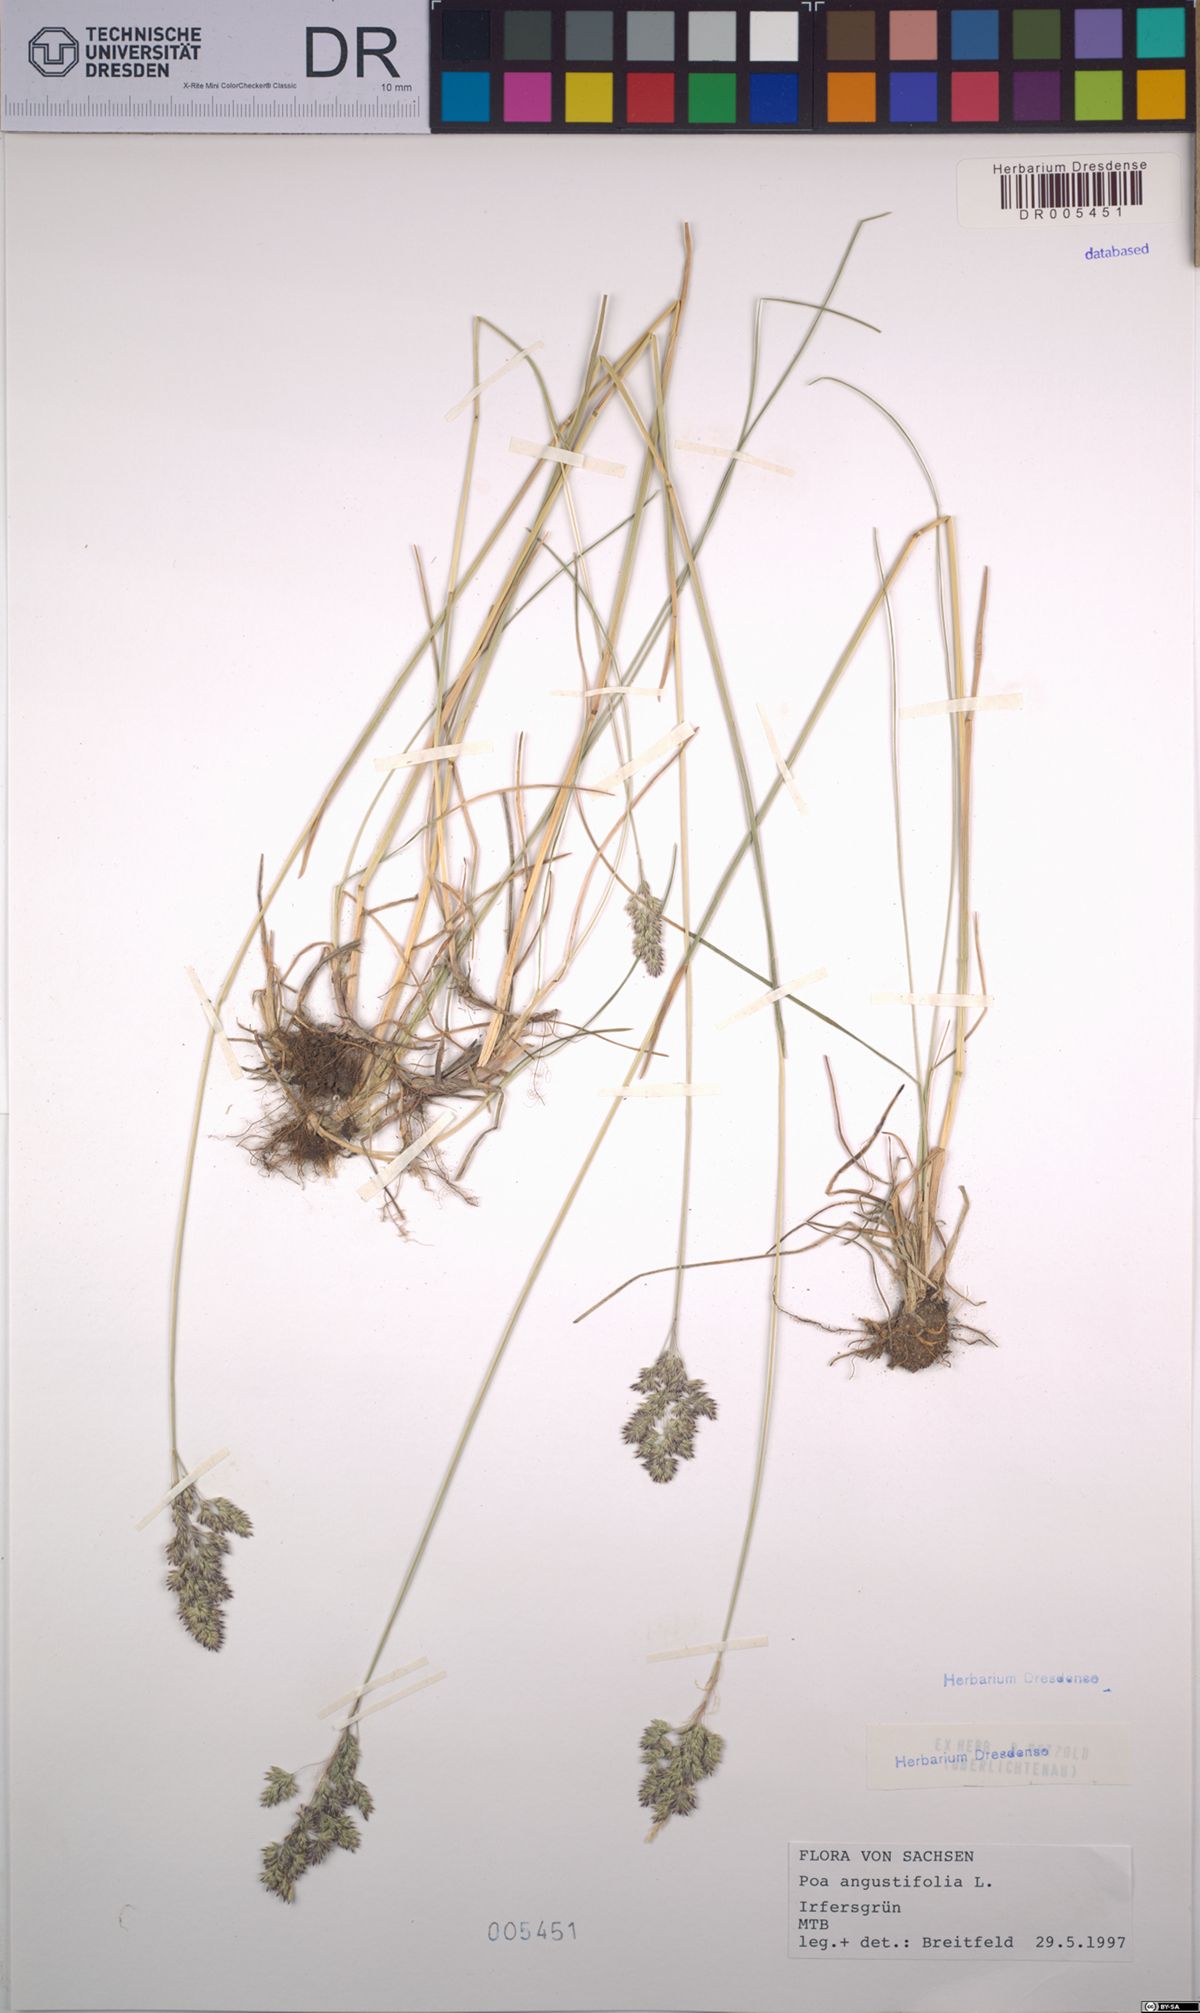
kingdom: Plantae
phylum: Tracheophyta
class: Liliopsida
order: Poales
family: Poaceae
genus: Poa
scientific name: Poa angustifolia
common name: Narrow-leaved meadow-grass
